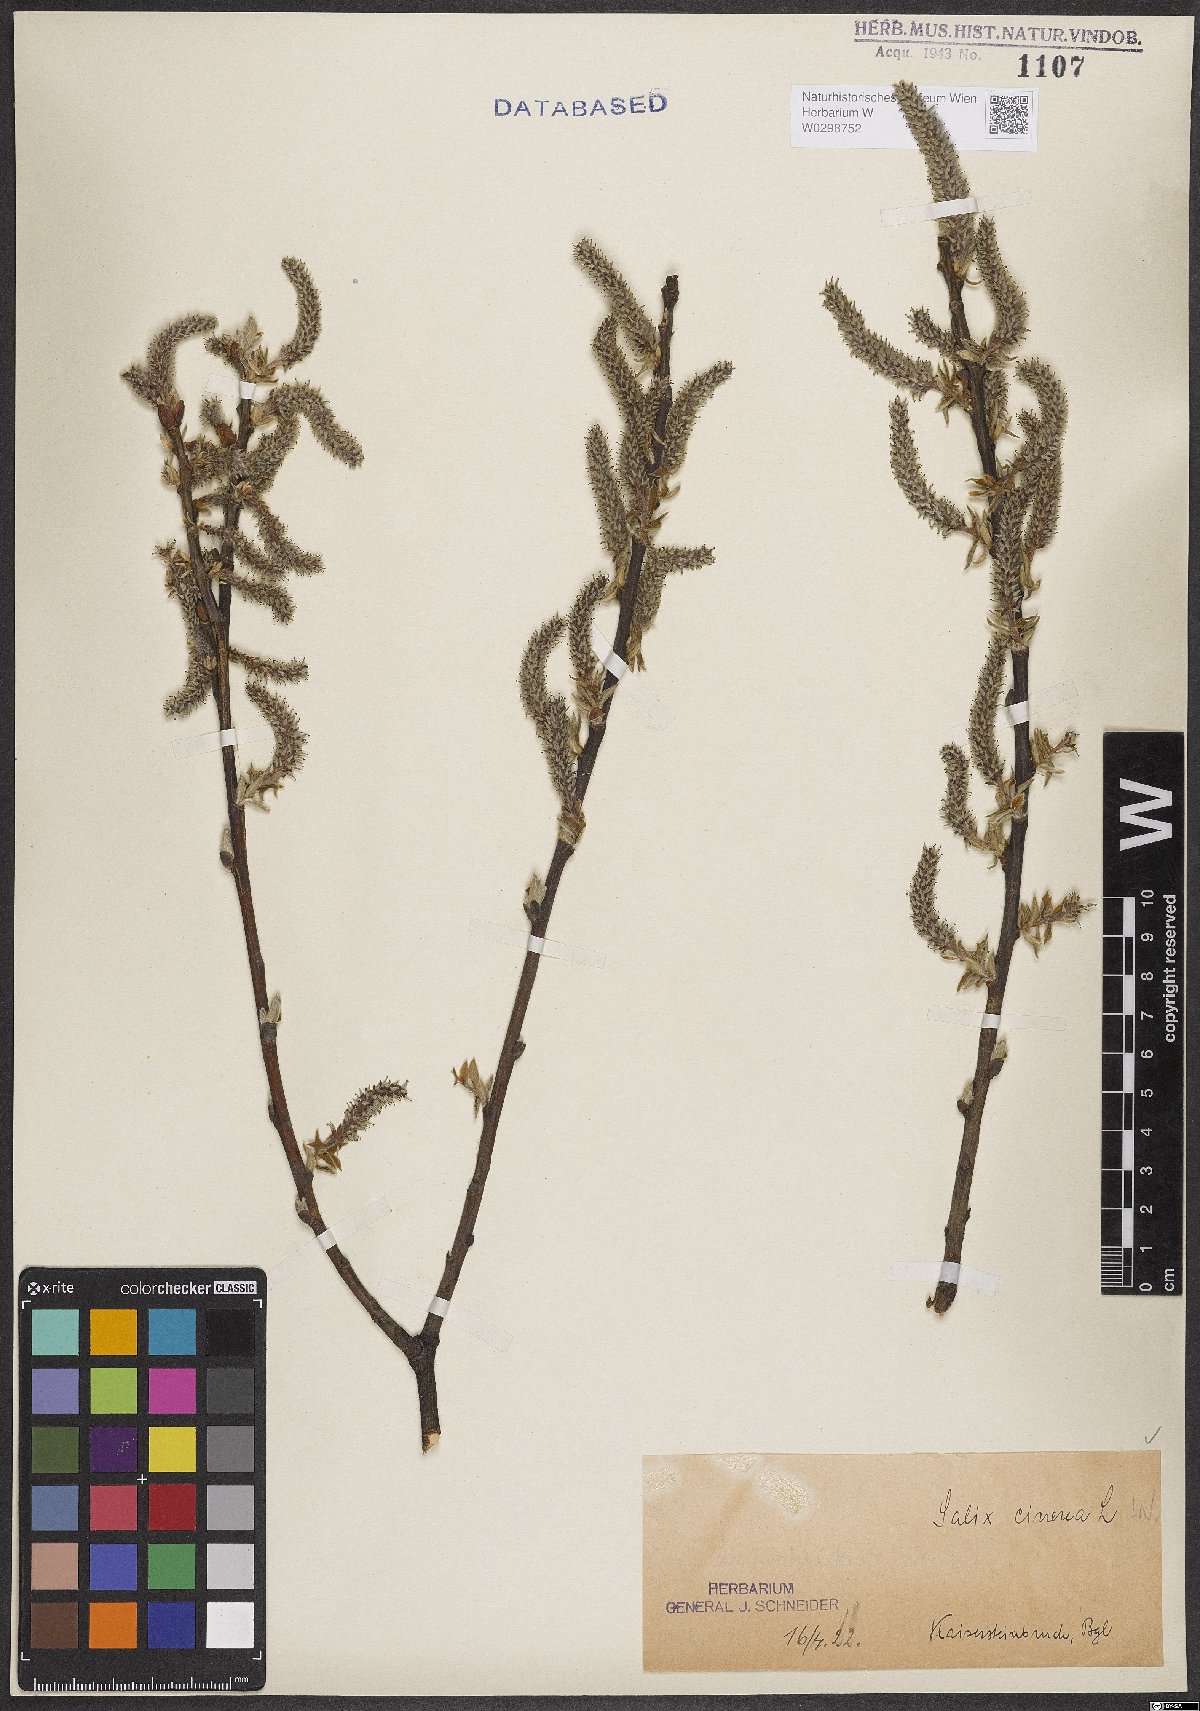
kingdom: Plantae
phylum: Tracheophyta
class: Magnoliopsida
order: Malpighiales
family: Salicaceae
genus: Salix
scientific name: Salix cinerea
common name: Common sallow
